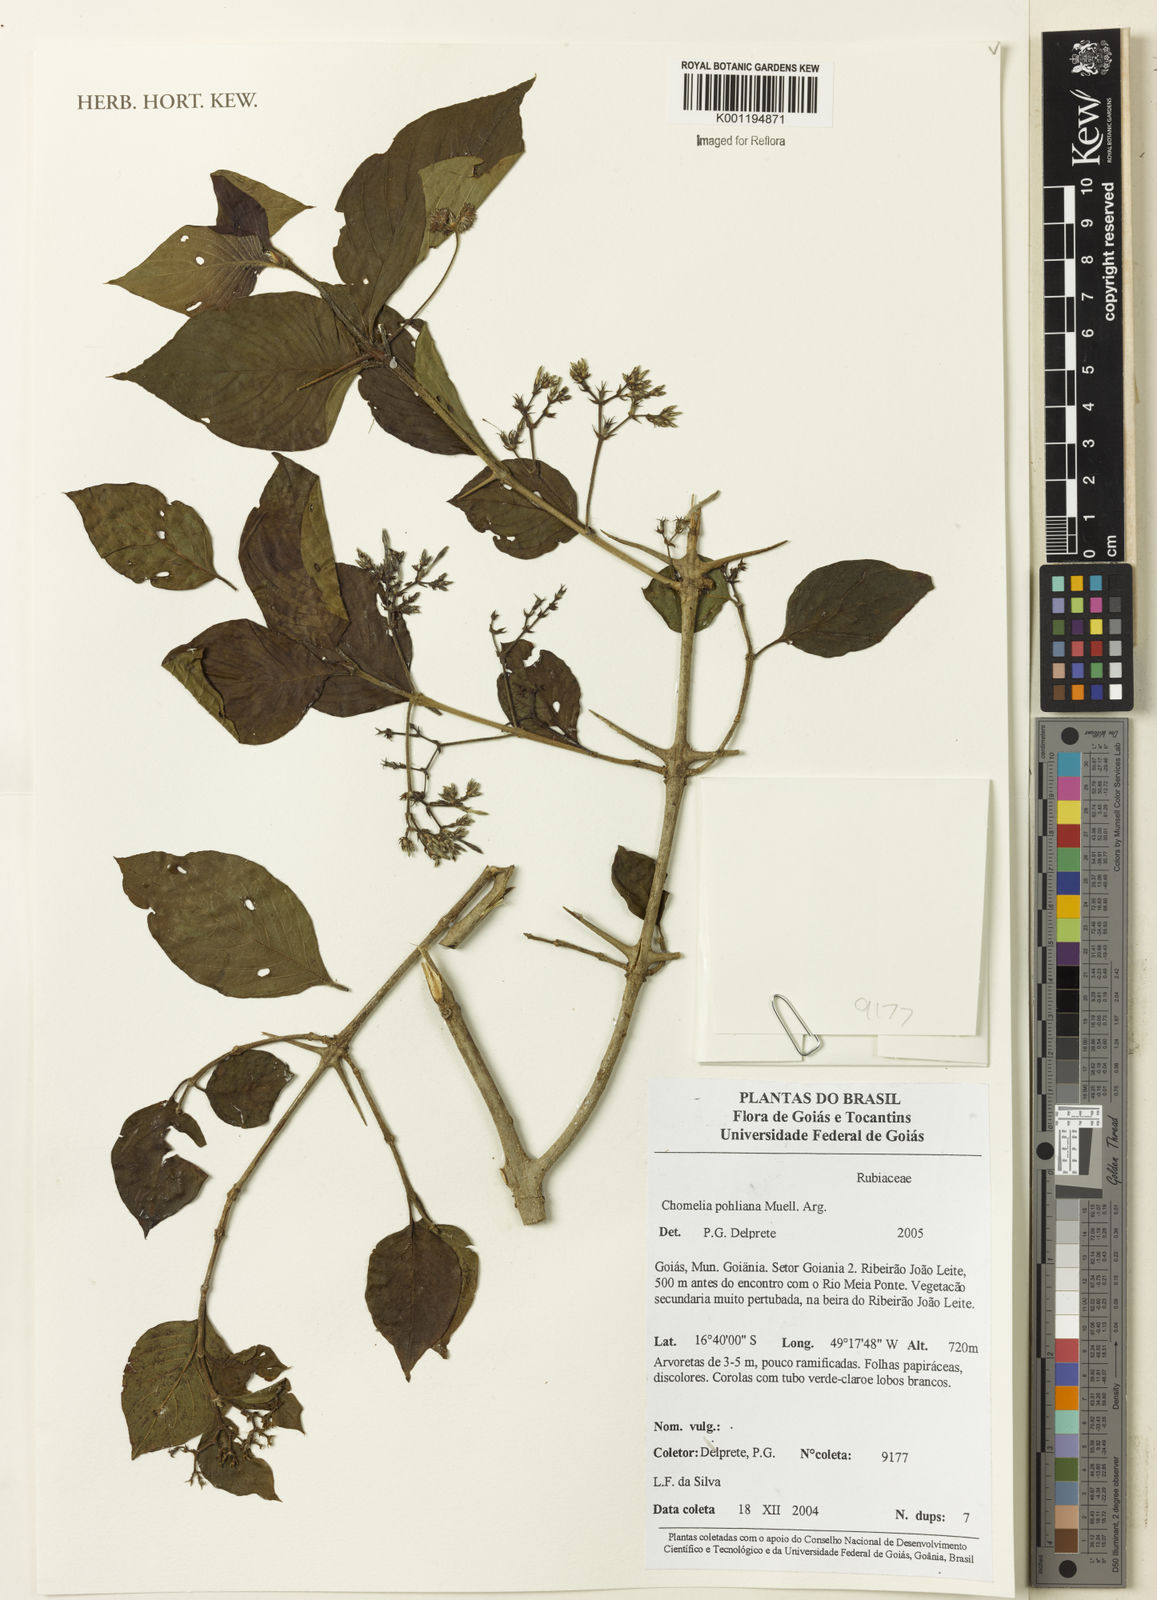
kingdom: Plantae
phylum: Tracheophyta
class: Magnoliopsida
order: Gentianales
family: Rubiaceae
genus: Chomelia
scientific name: Chomelia
